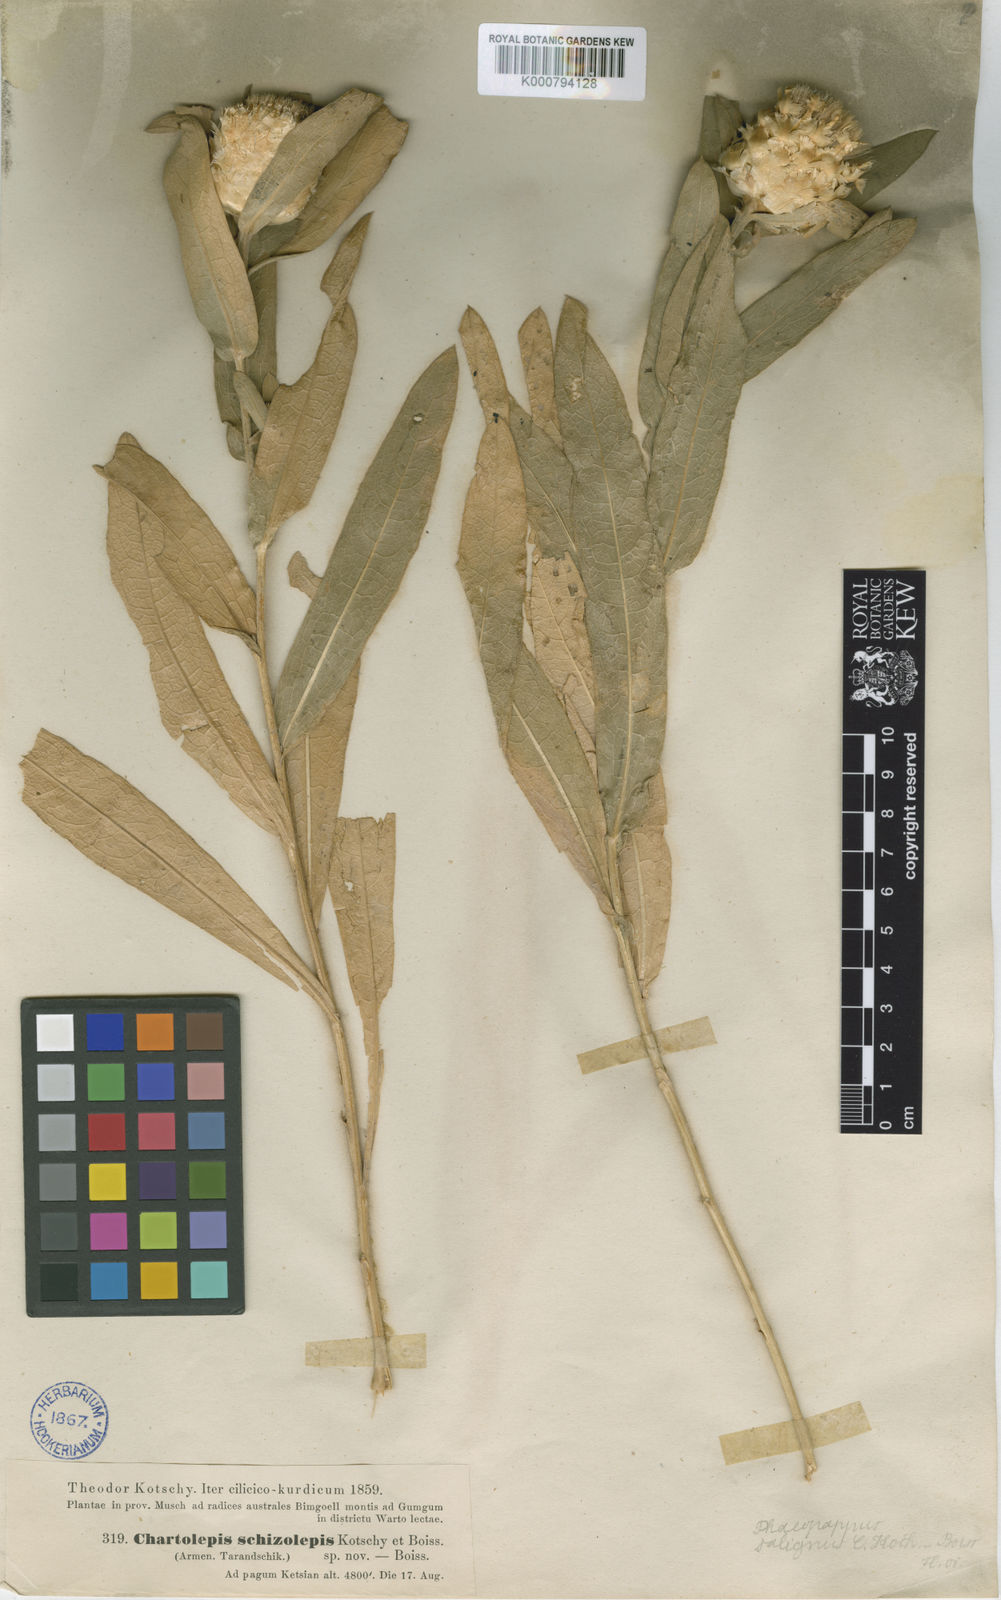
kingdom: Plantae
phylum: Tracheophyta
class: Magnoliopsida
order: Asterales
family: Asteraceae
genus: Centaurea
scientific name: Centaurea saligna
